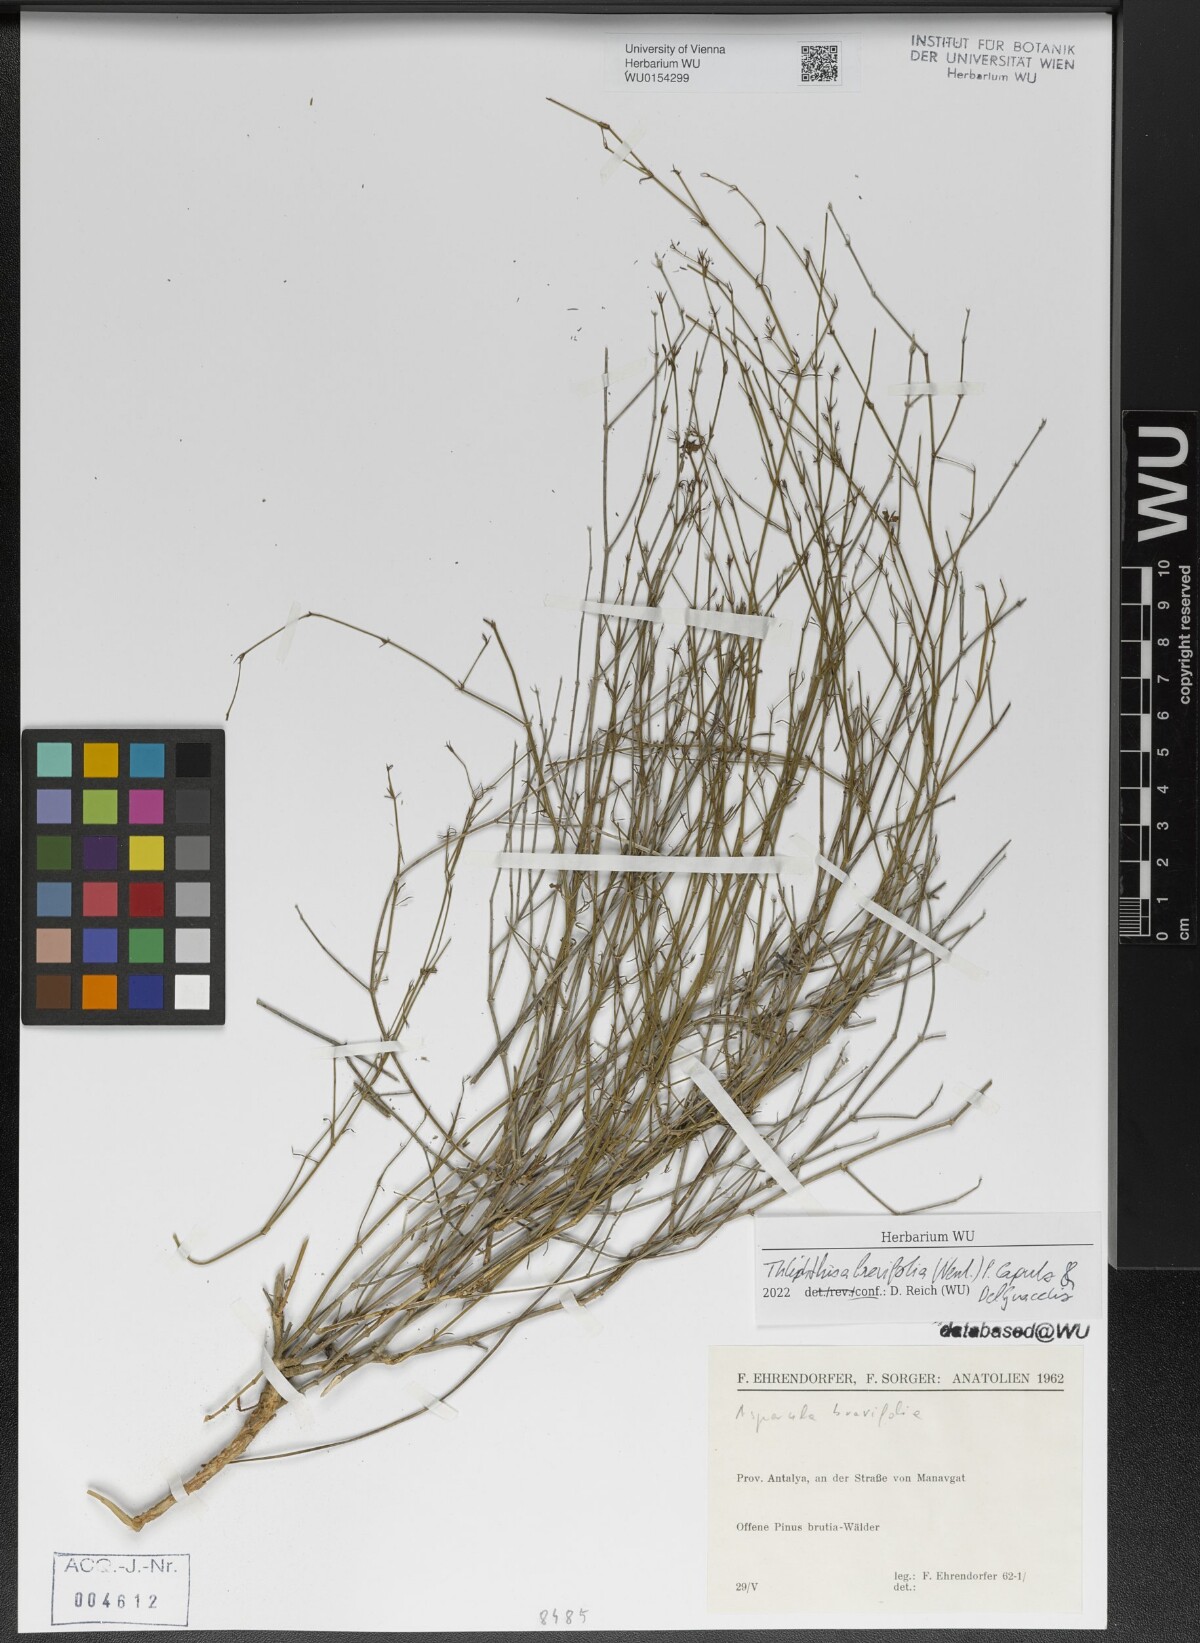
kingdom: Plantae
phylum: Tracheophyta
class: Magnoliopsida
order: Gentianales
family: Rubiaceae
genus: Thliphthisa
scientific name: Thliphthisa brevifolia
